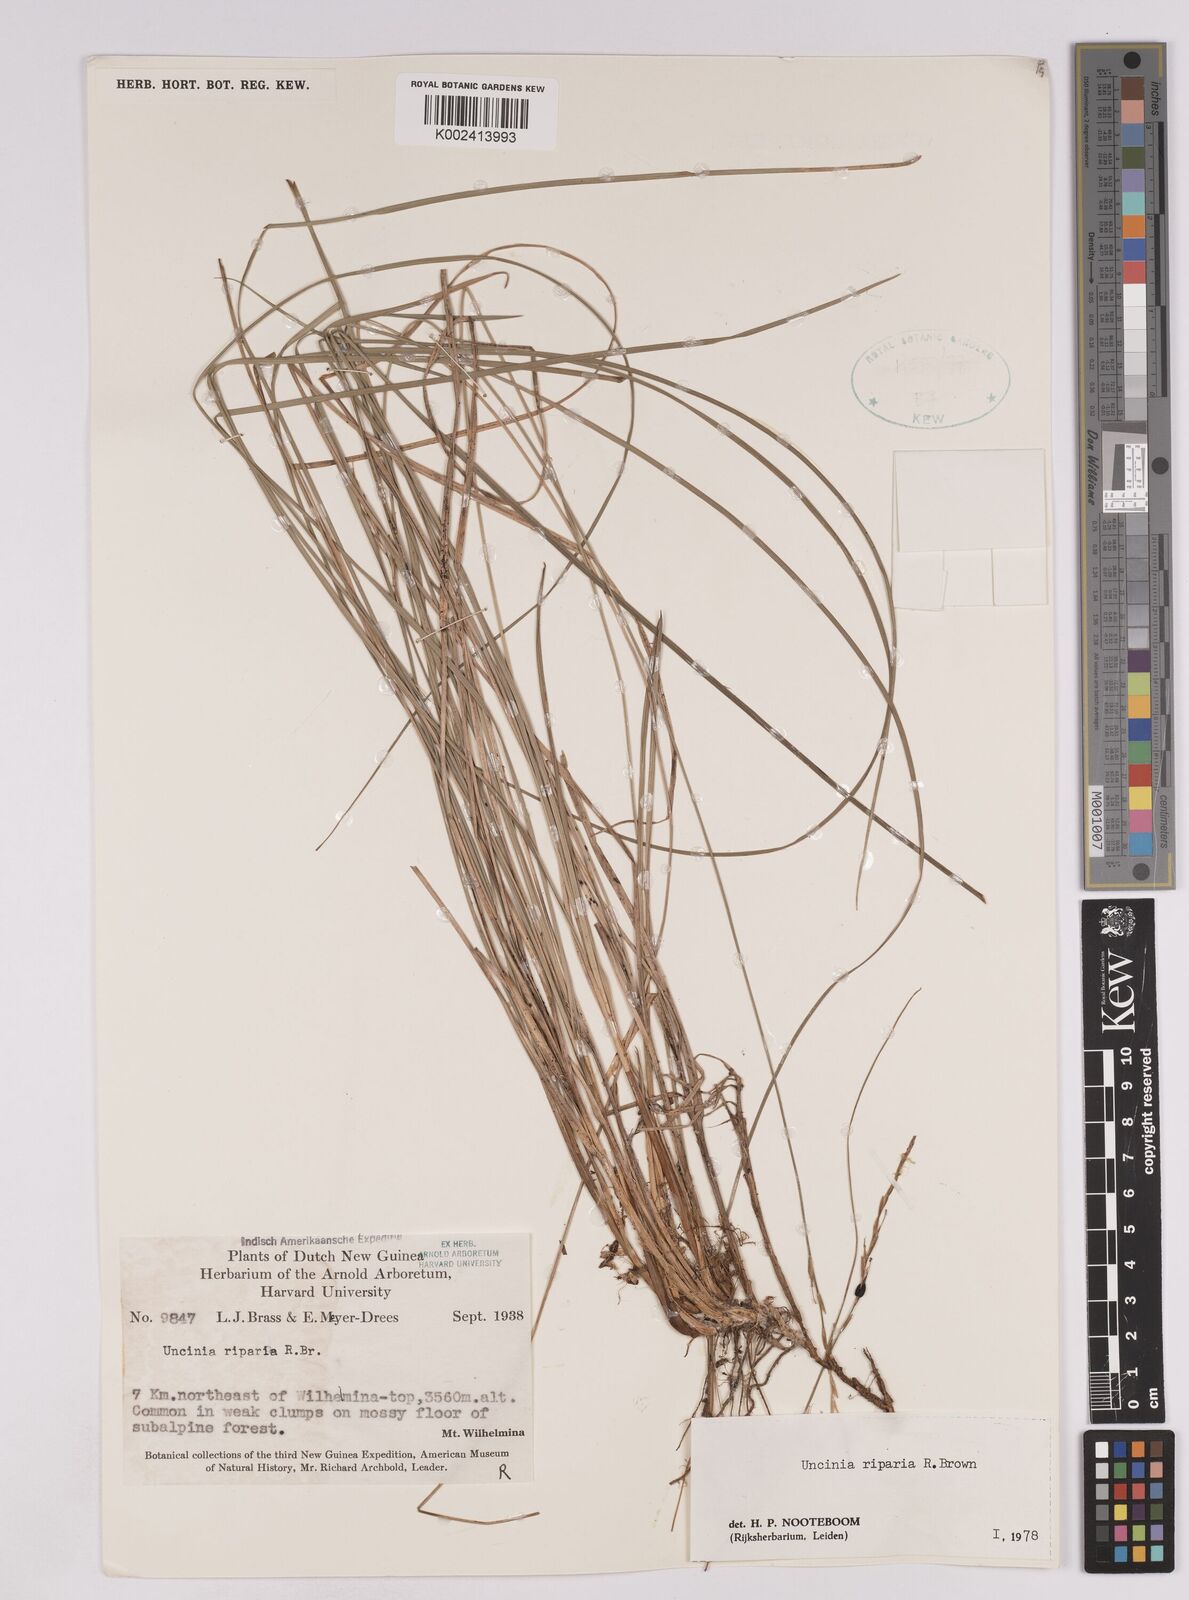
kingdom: Plantae
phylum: Tracheophyta
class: Liliopsida
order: Poales
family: Cyperaceae
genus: Carex
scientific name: Carex sclerophylla
